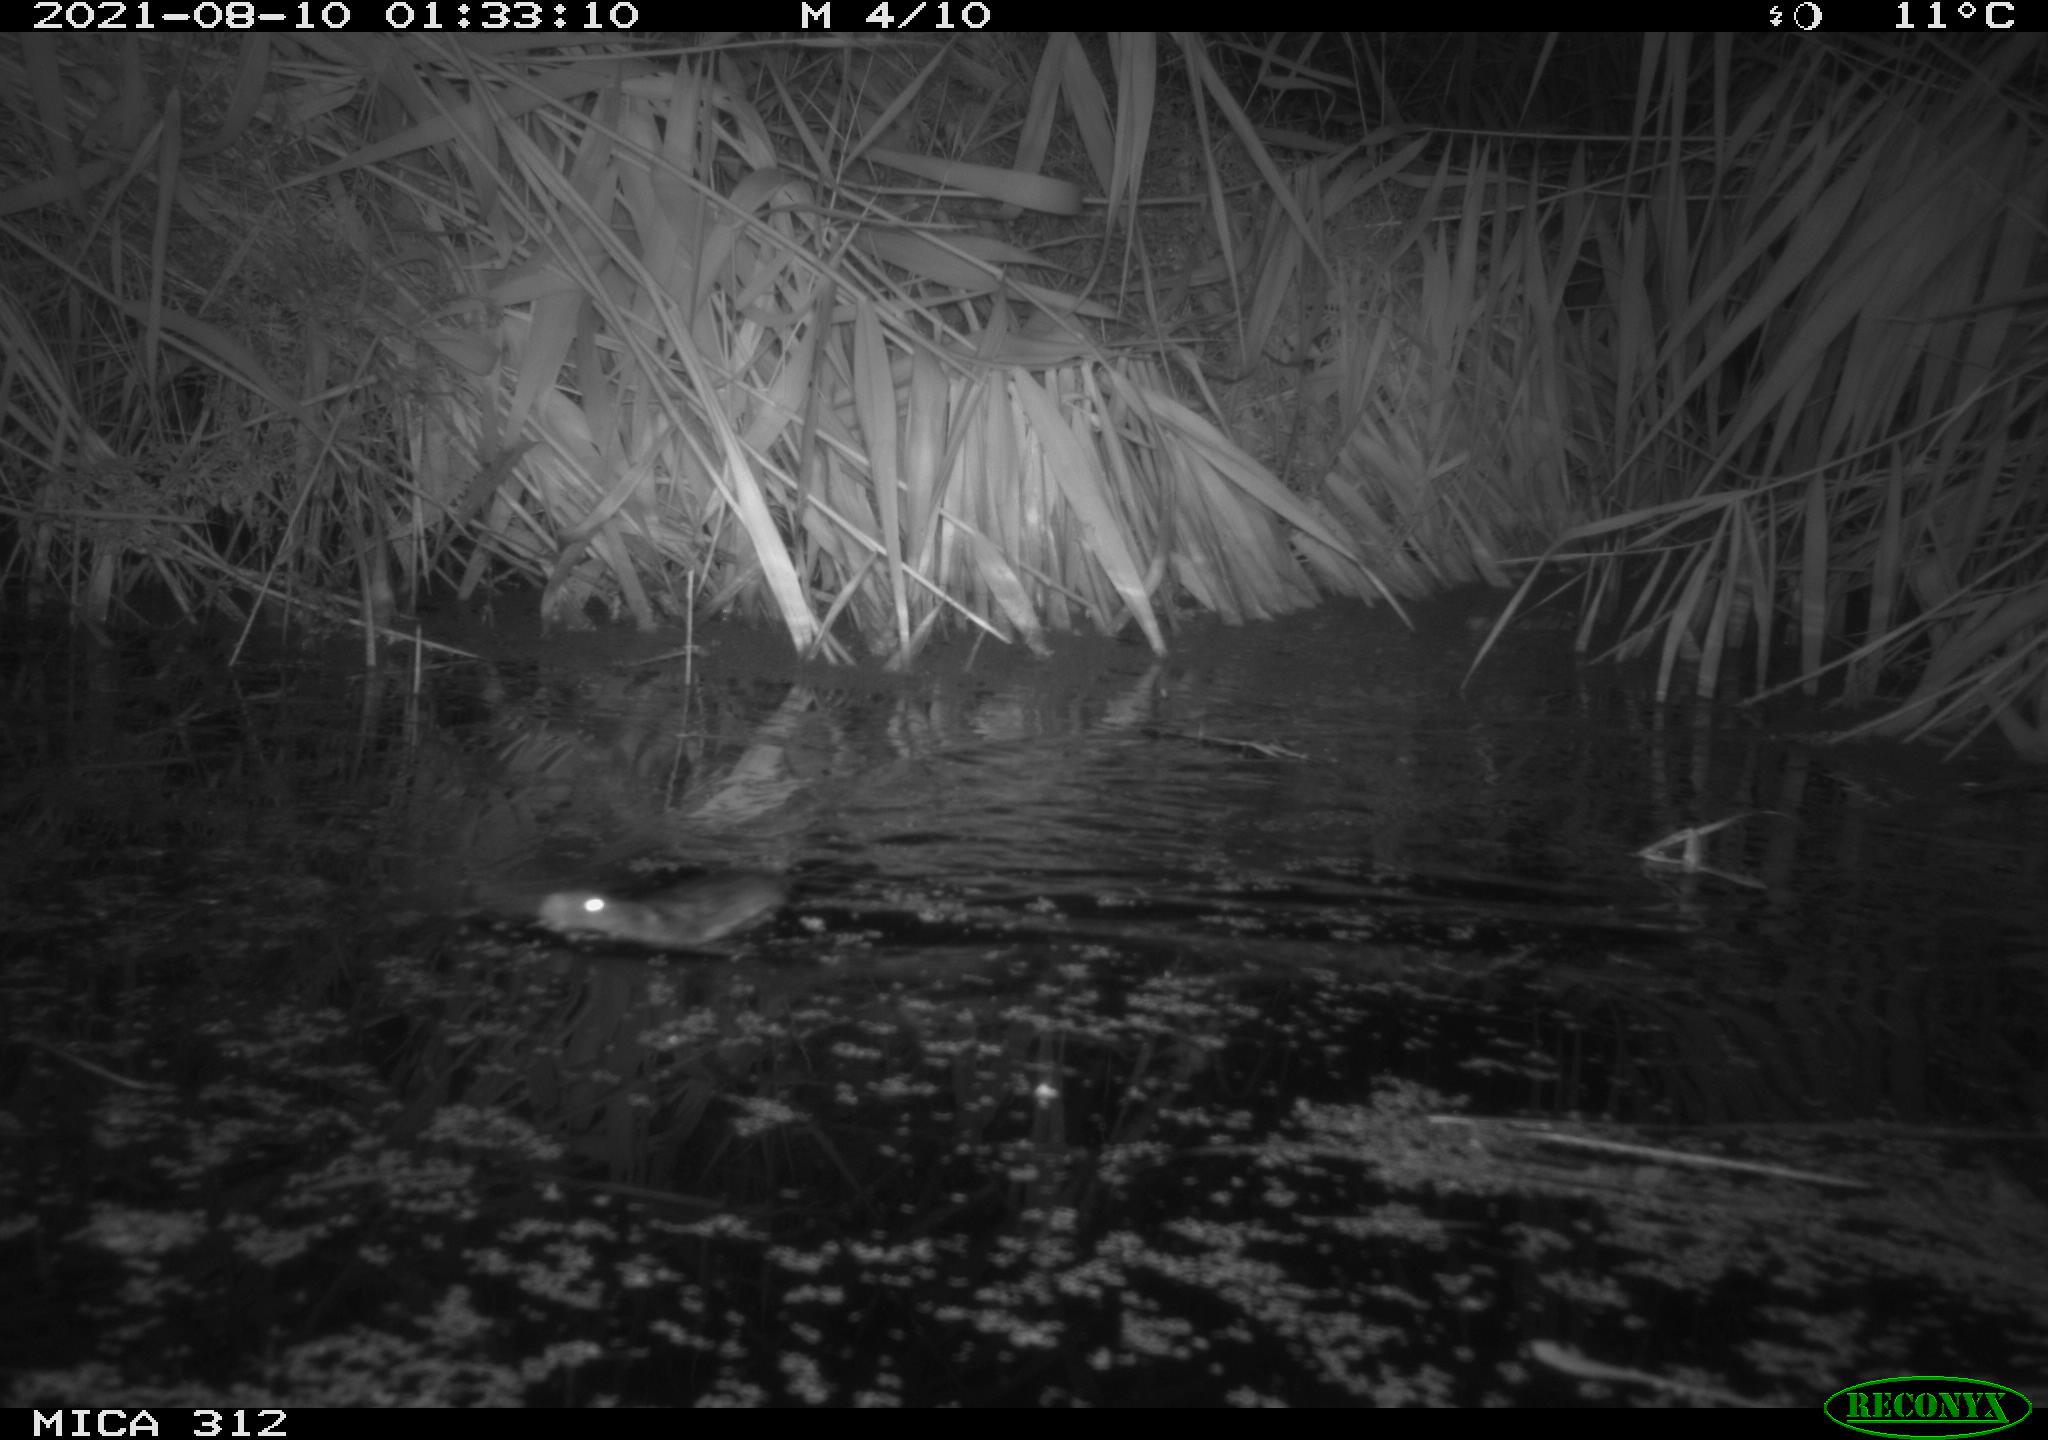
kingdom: Animalia
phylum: Chordata
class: Mammalia
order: Rodentia
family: Muridae
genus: Rattus
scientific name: Rattus norvegicus
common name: Brown rat
